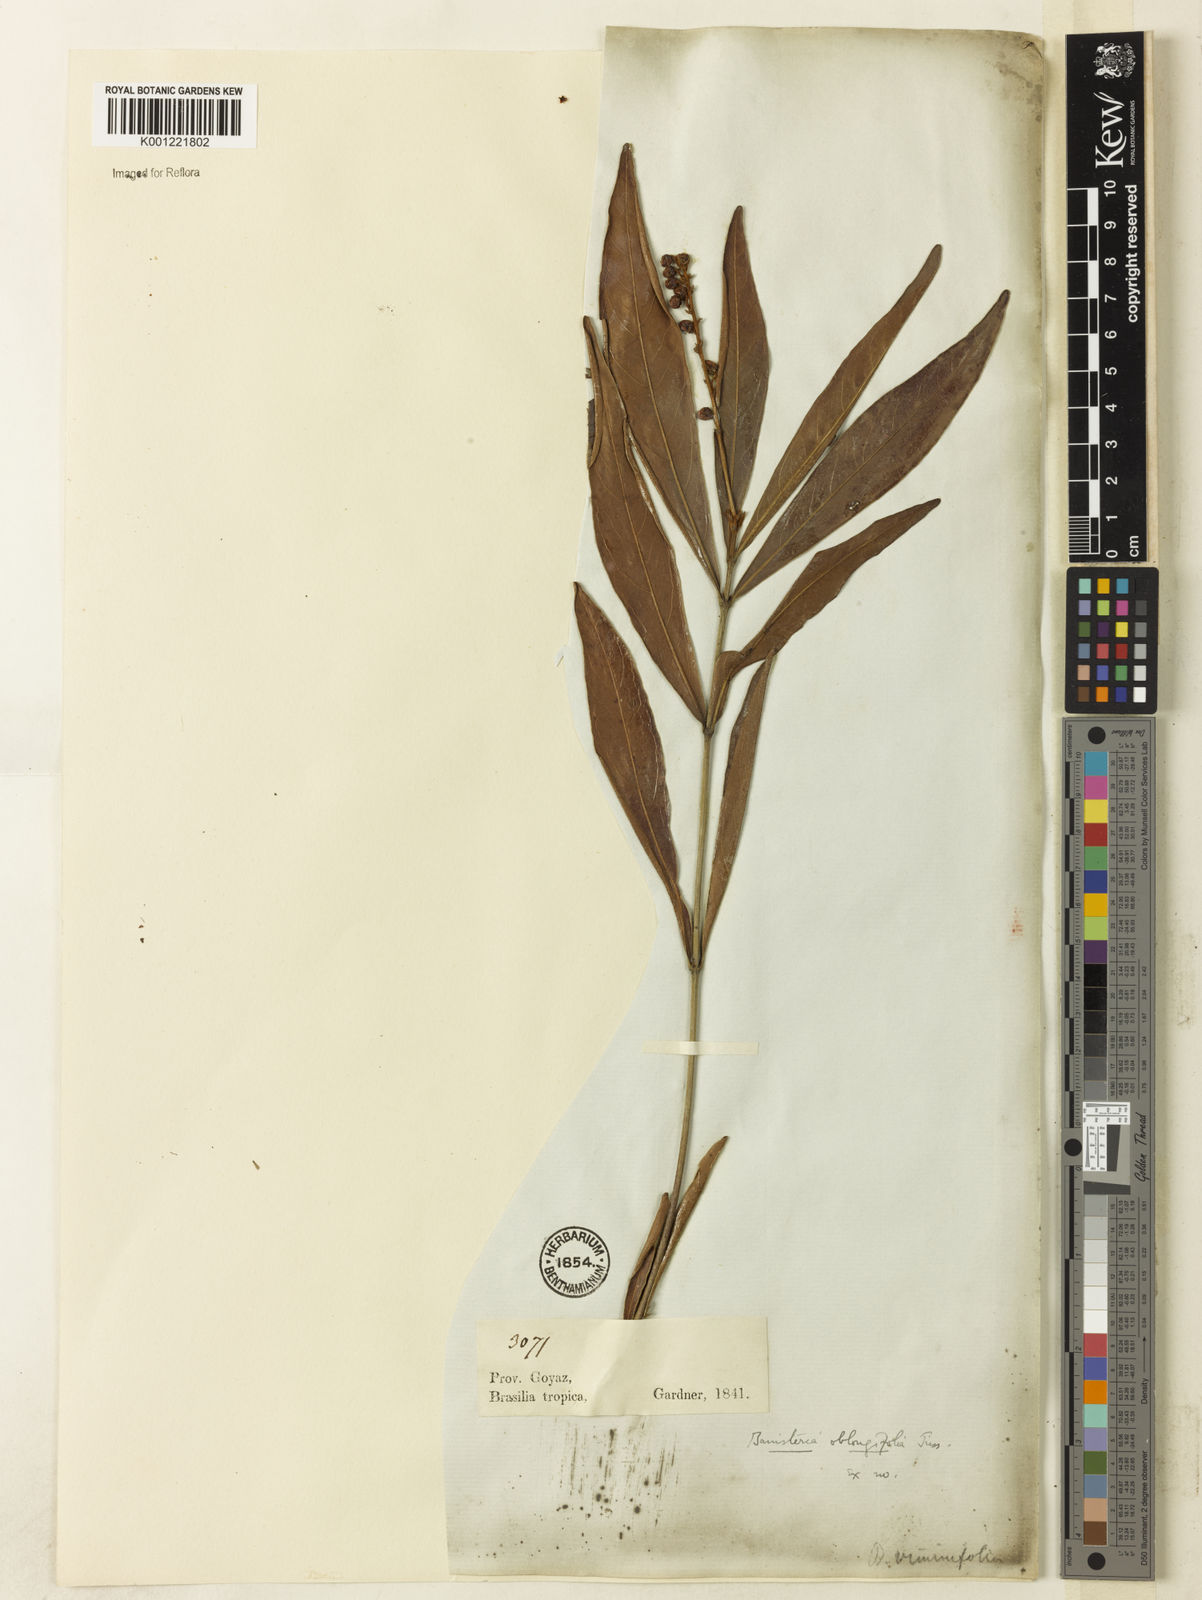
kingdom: Plantae
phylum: Tracheophyta
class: Magnoliopsida
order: Malpighiales
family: Malpighiaceae
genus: Byrsonima
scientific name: Byrsonima oblongifolia
